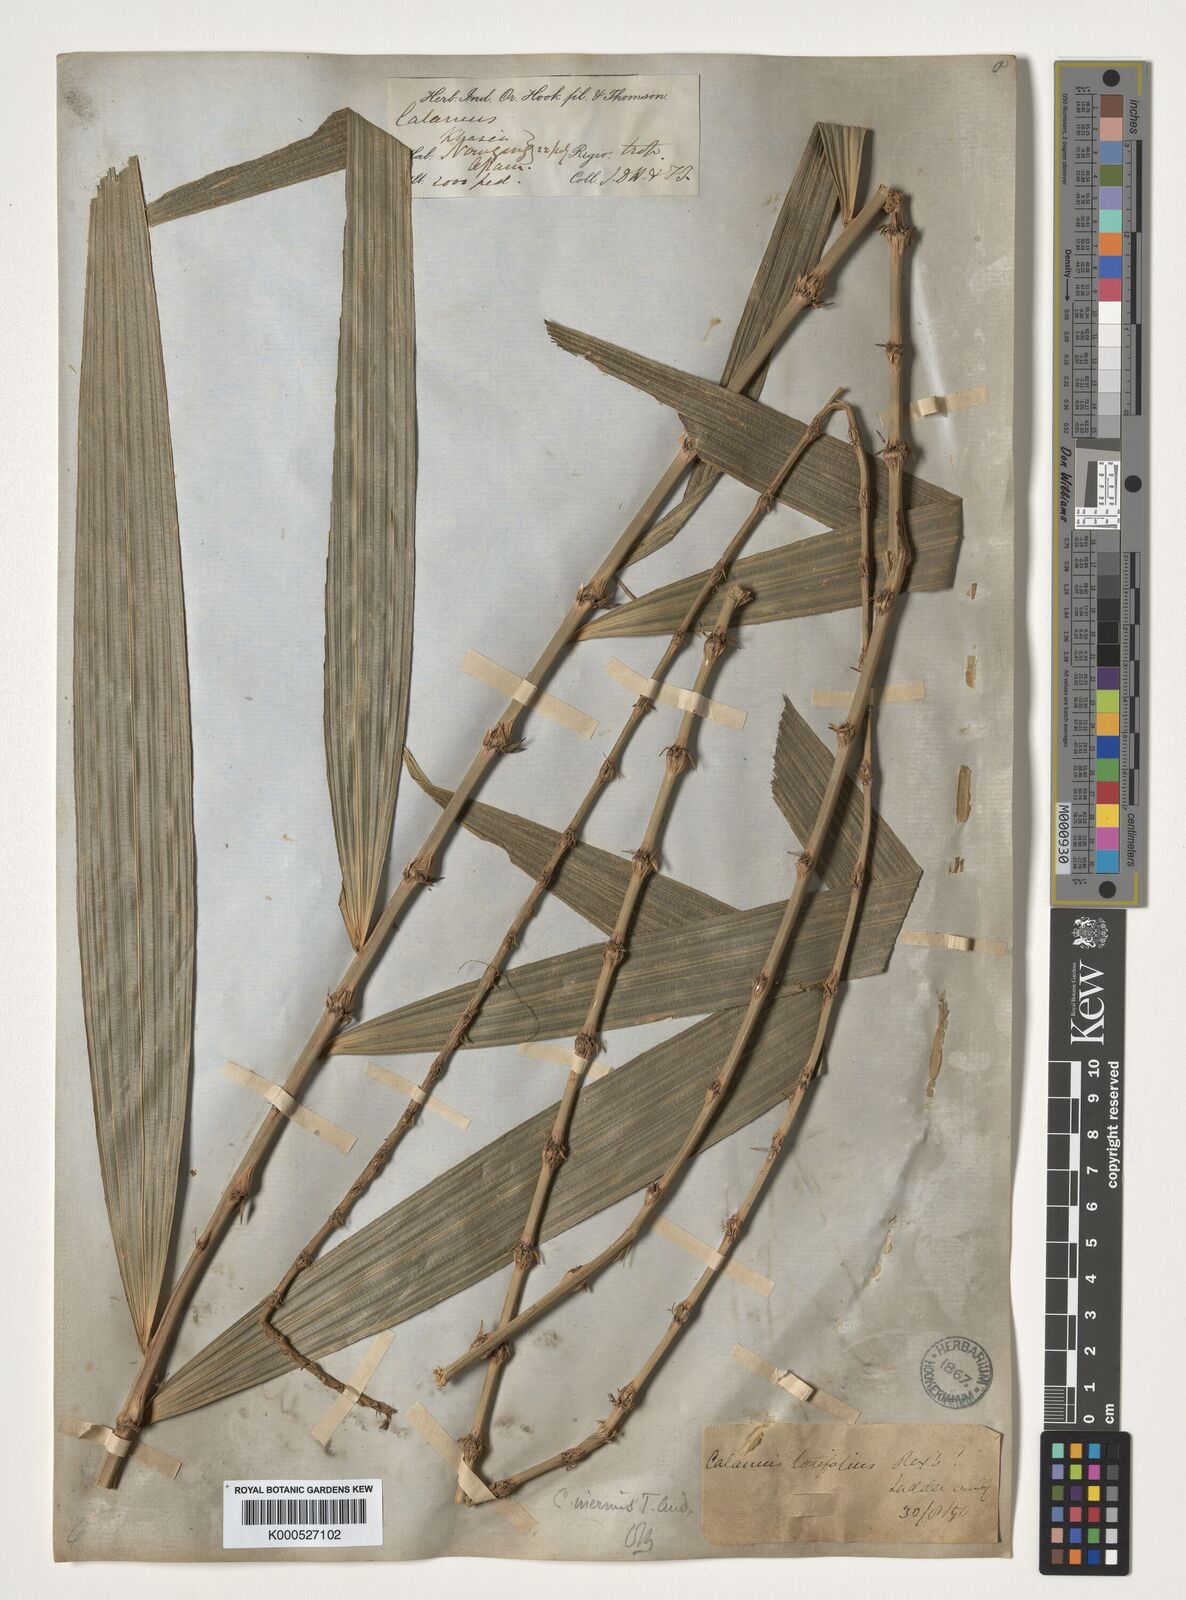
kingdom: Plantae
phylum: Tracheophyta
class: Liliopsida
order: Arecales
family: Arecaceae
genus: Calamus
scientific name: Calamus latifolius
